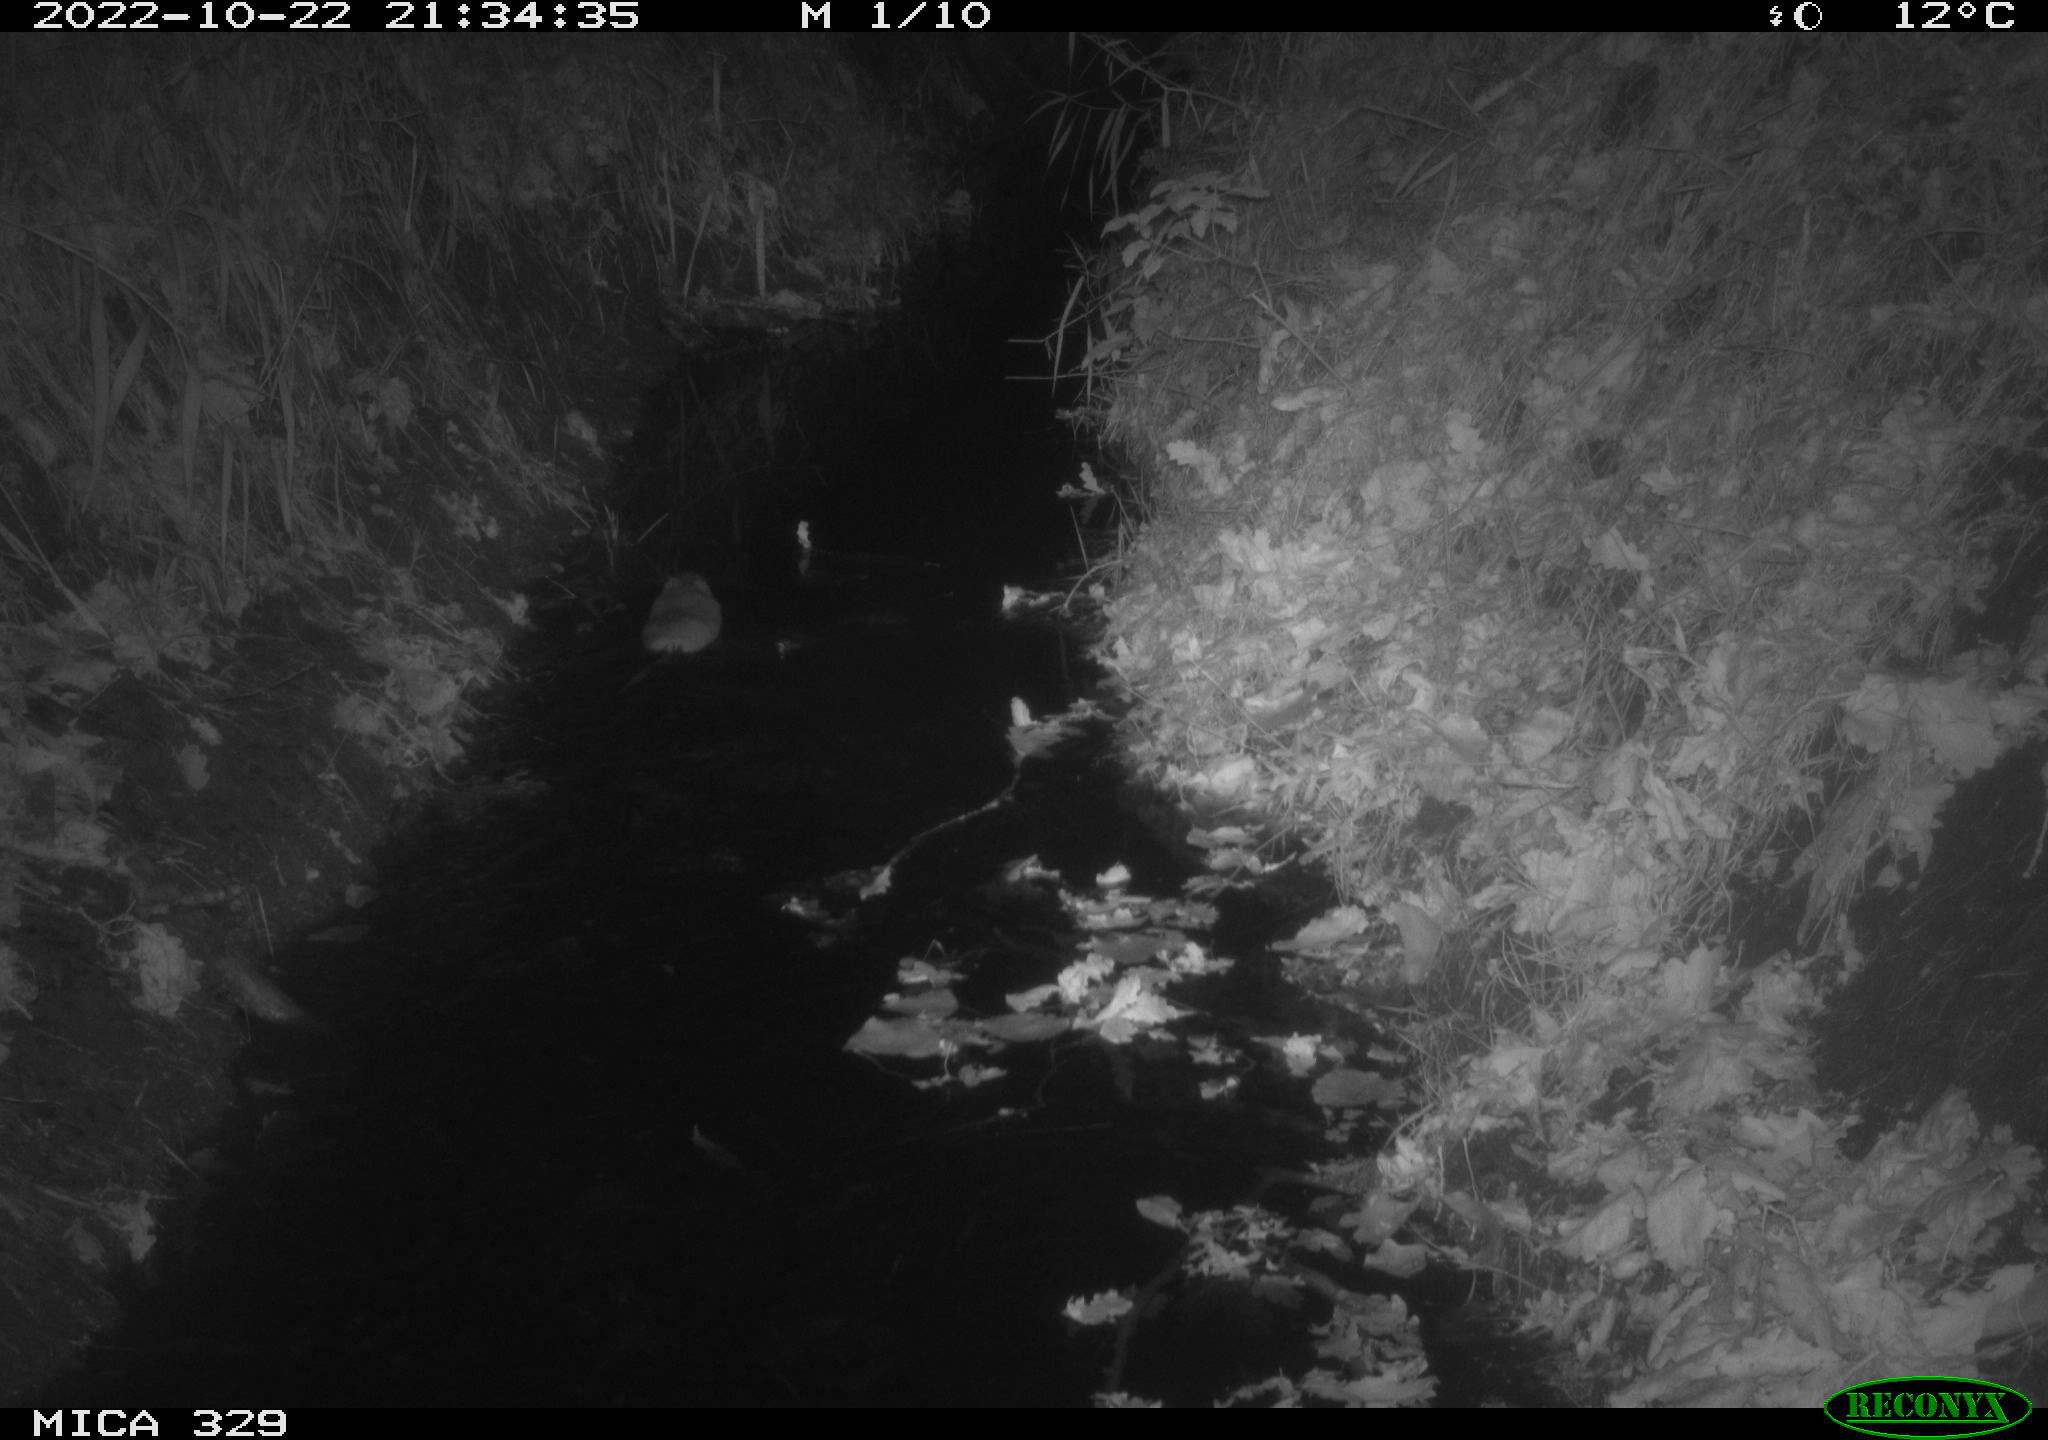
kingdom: Animalia
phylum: Chordata
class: Mammalia
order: Rodentia
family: Cricetidae
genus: Ondatra
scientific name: Ondatra zibethicus
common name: Muskrat
